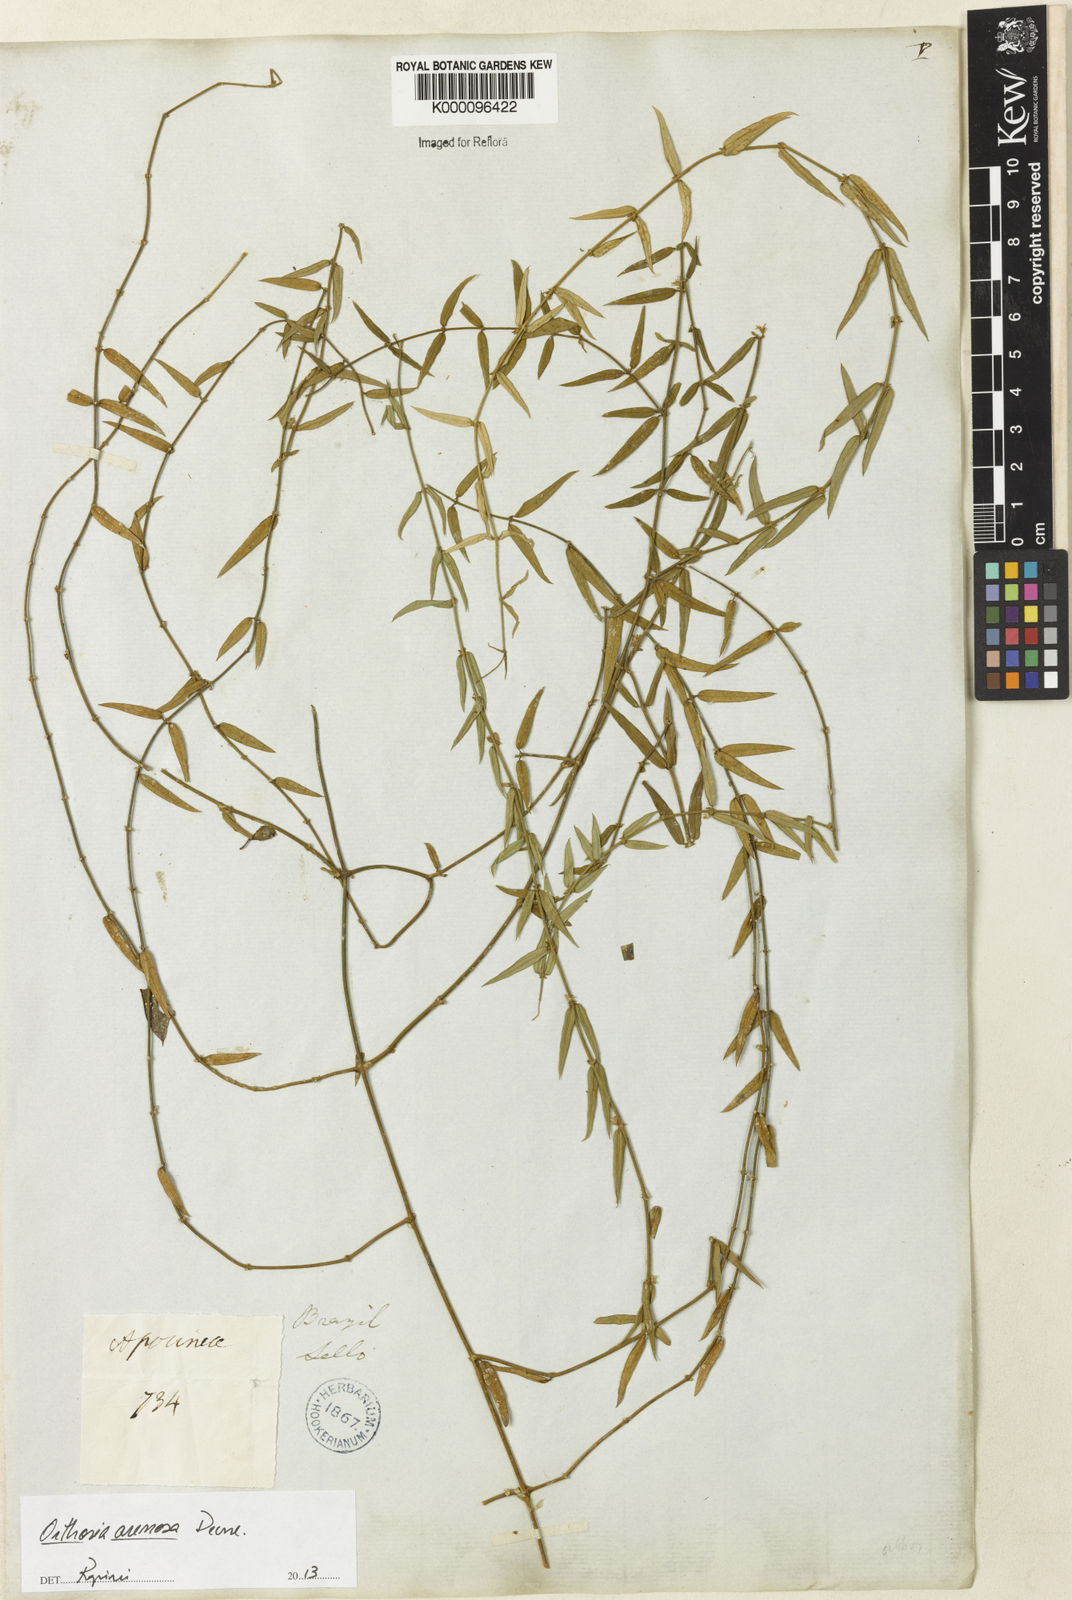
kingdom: Plantae
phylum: Tracheophyta
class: Magnoliopsida
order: Gentianales
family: Apocynaceae
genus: Orthosia
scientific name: Orthosia arenosa
